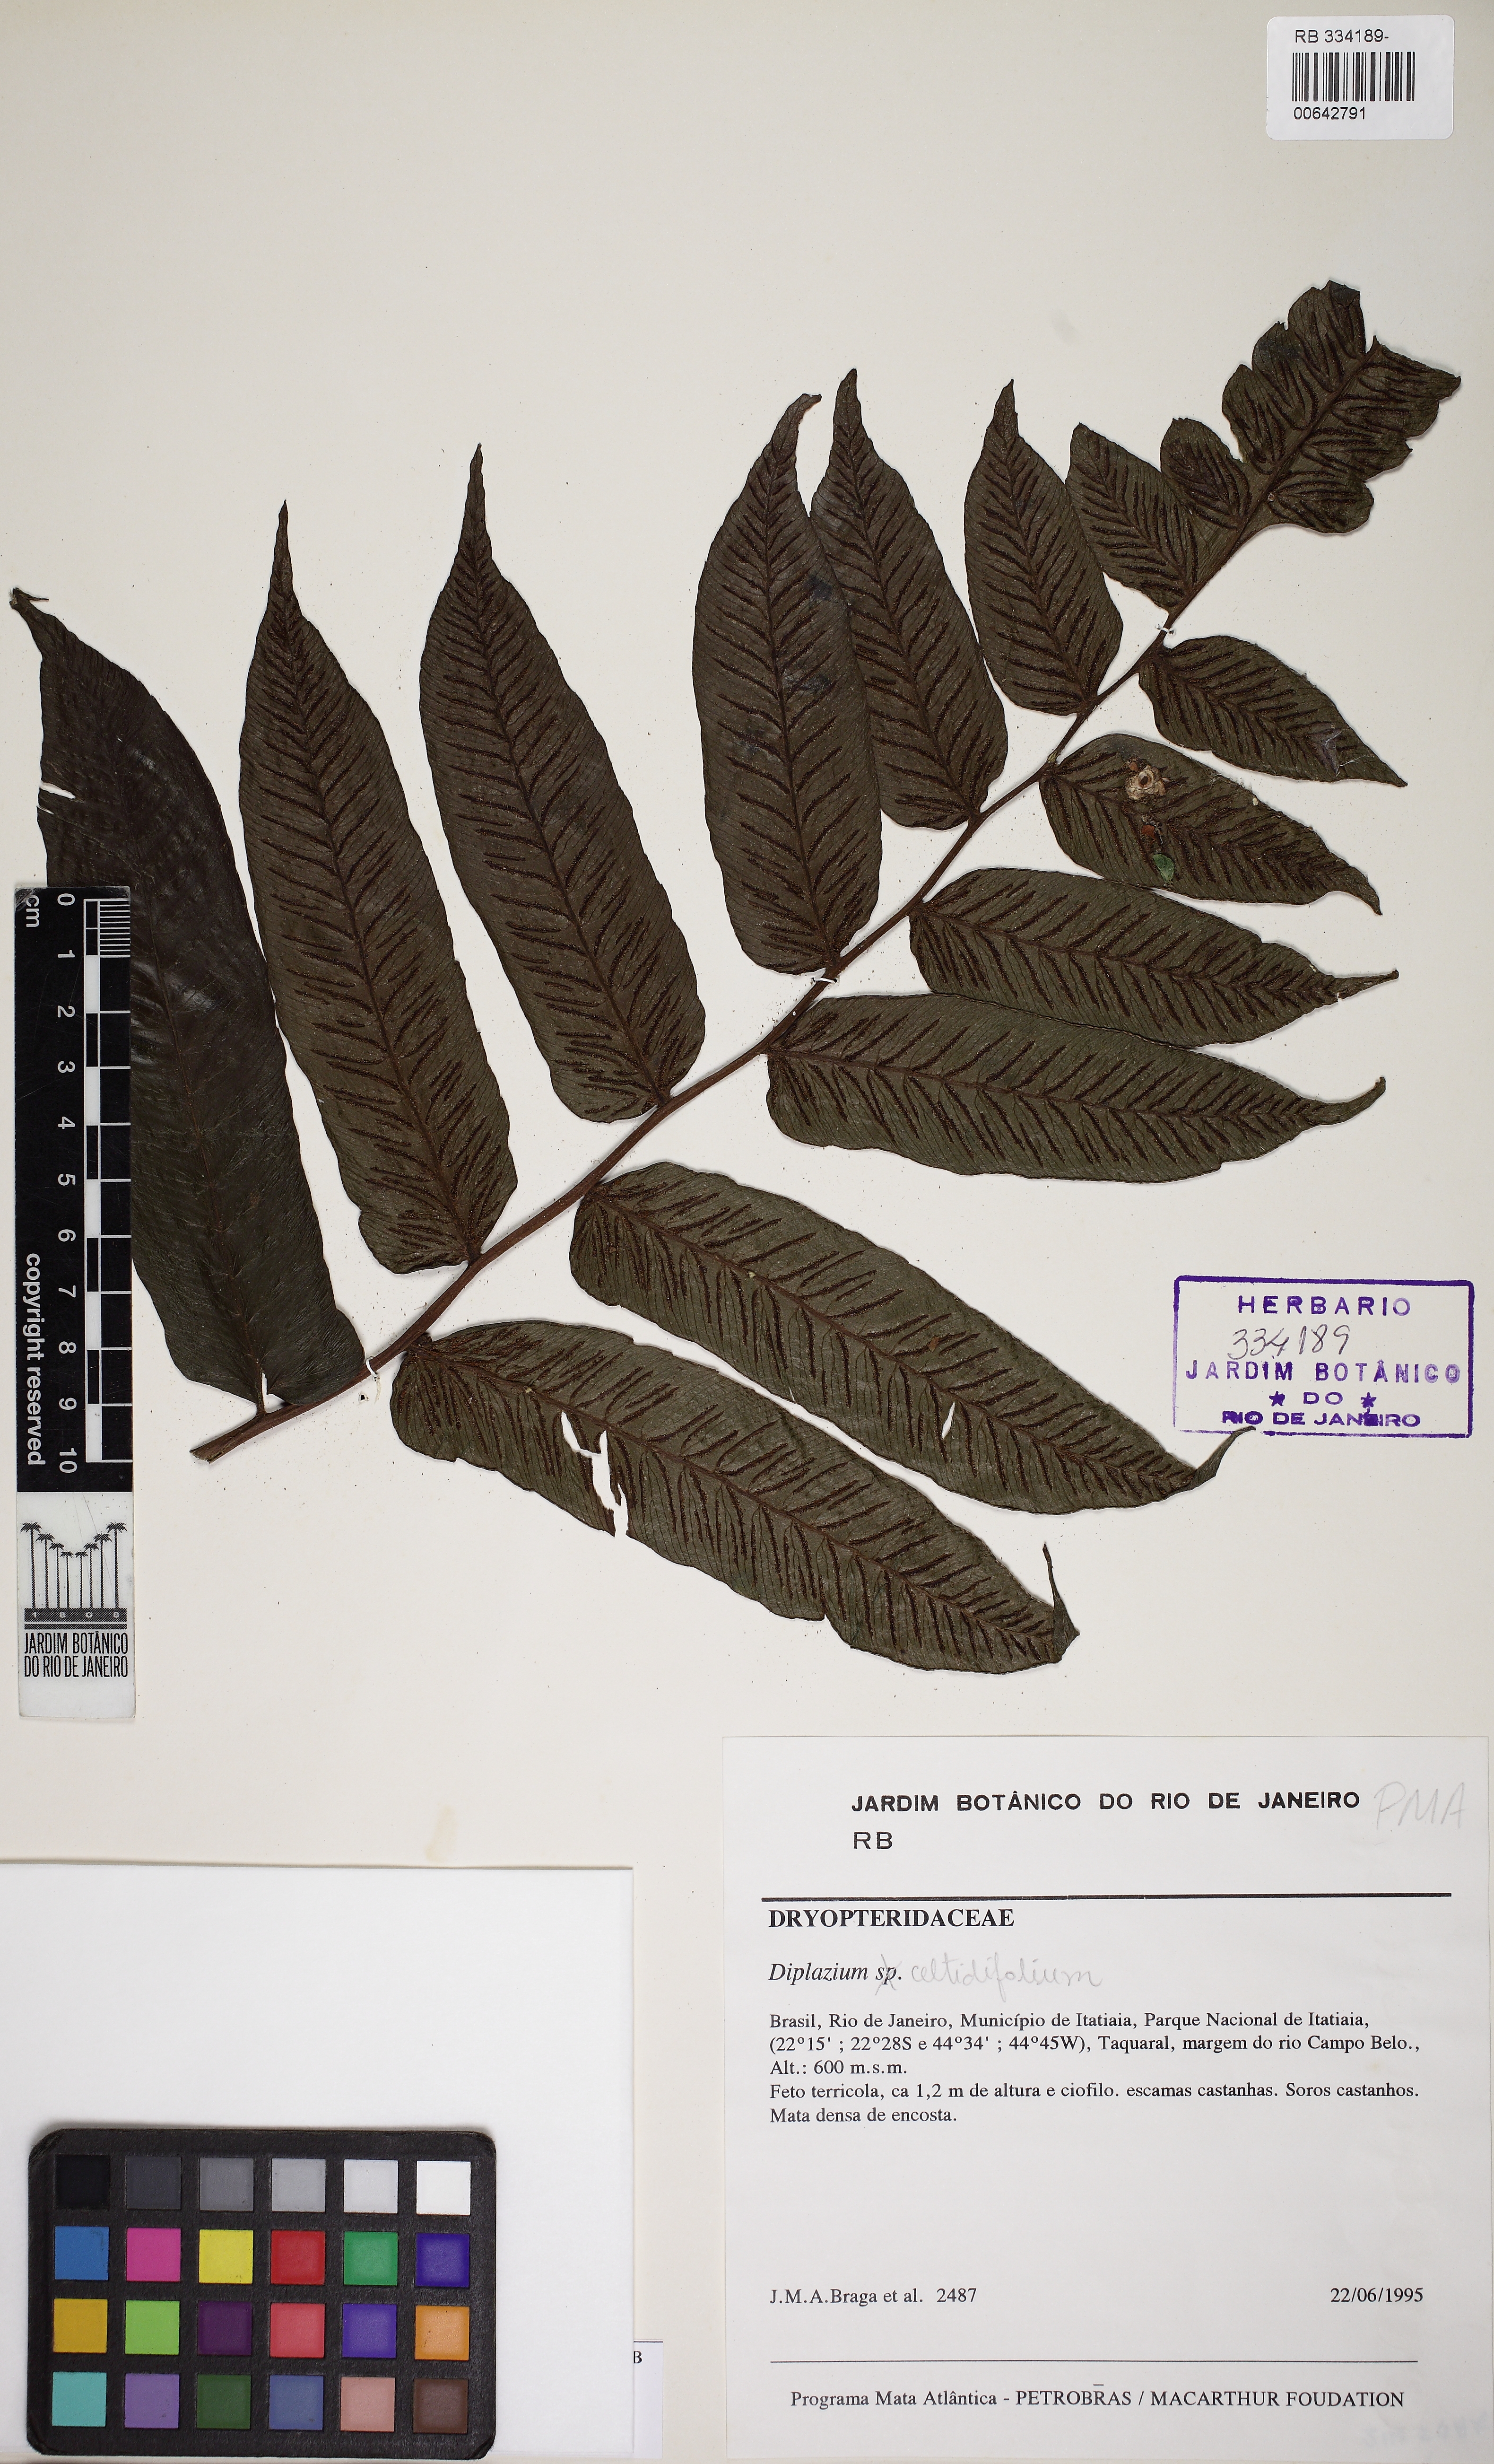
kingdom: Plantae
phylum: Tracheophyta
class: Polypodiopsida
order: Polypodiales
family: Athyriaceae
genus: Diplazium
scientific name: Diplazium celtidifolium
